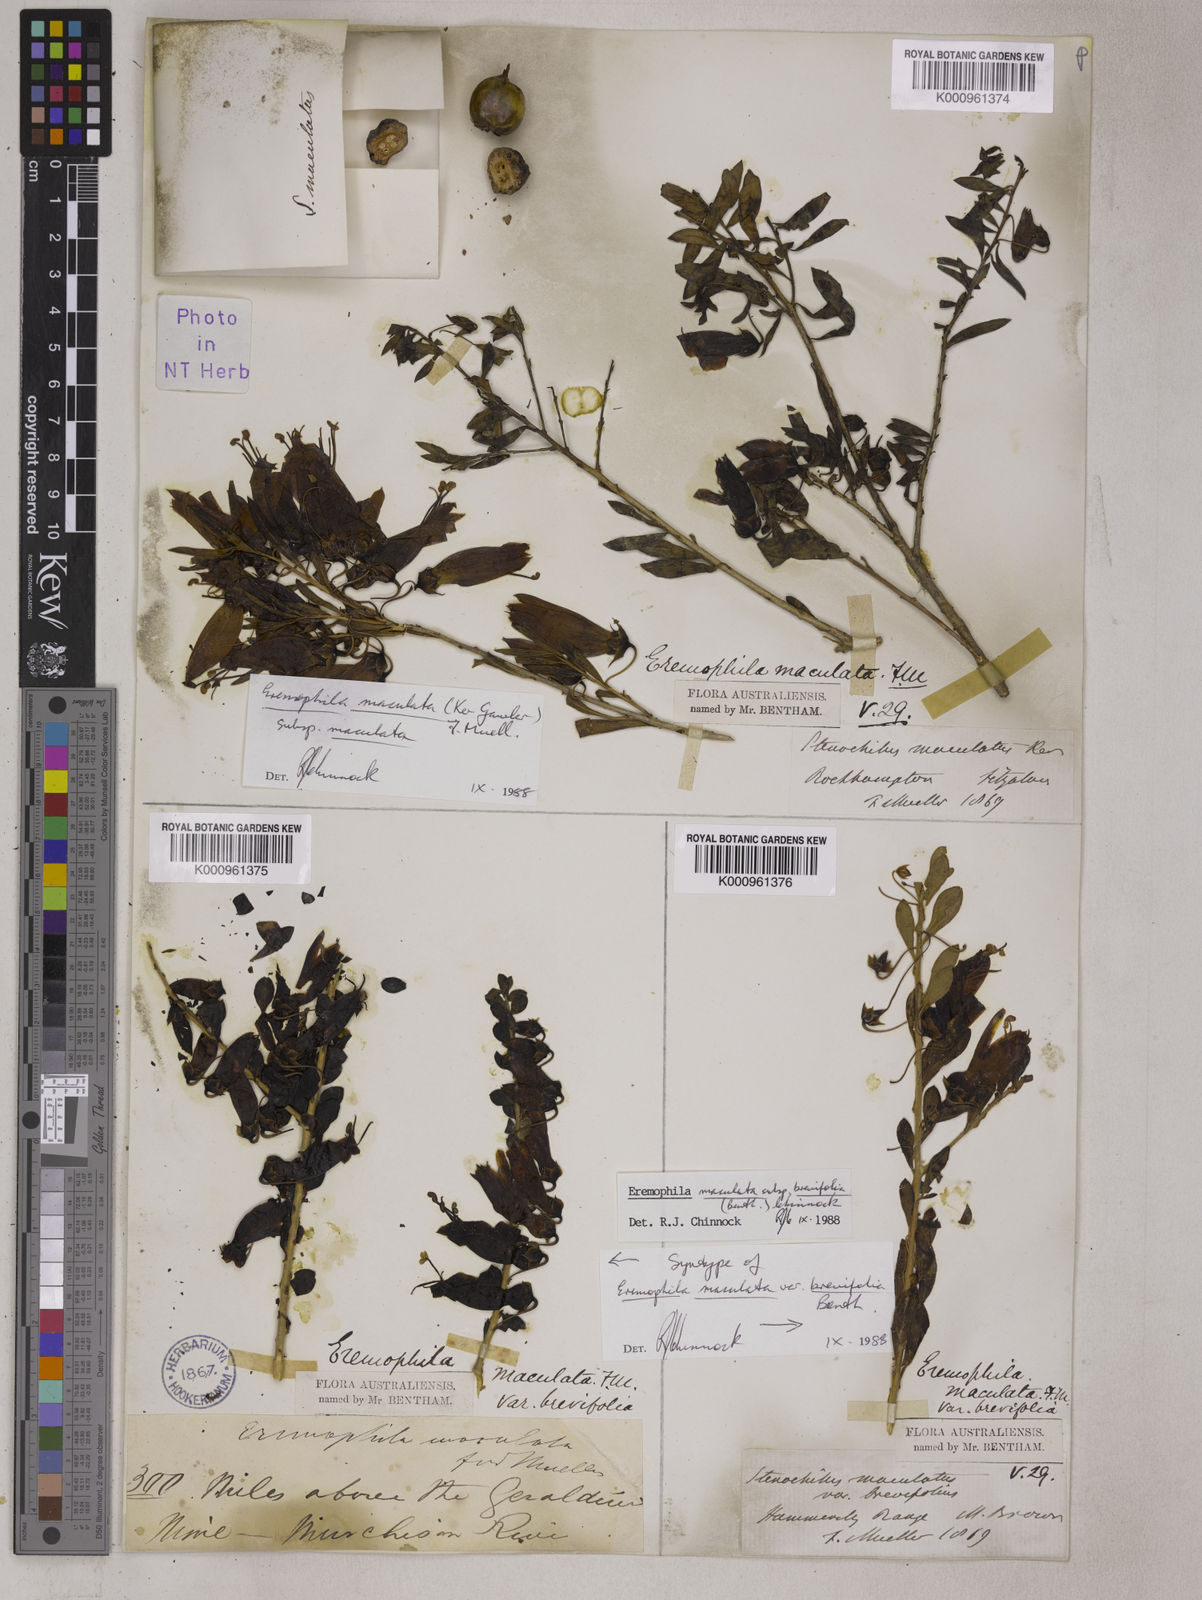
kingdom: Plantae
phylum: Tracheophyta
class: Magnoliopsida
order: Lamiales
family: Scrophulariaceae
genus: Eremophila
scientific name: Eremophila
